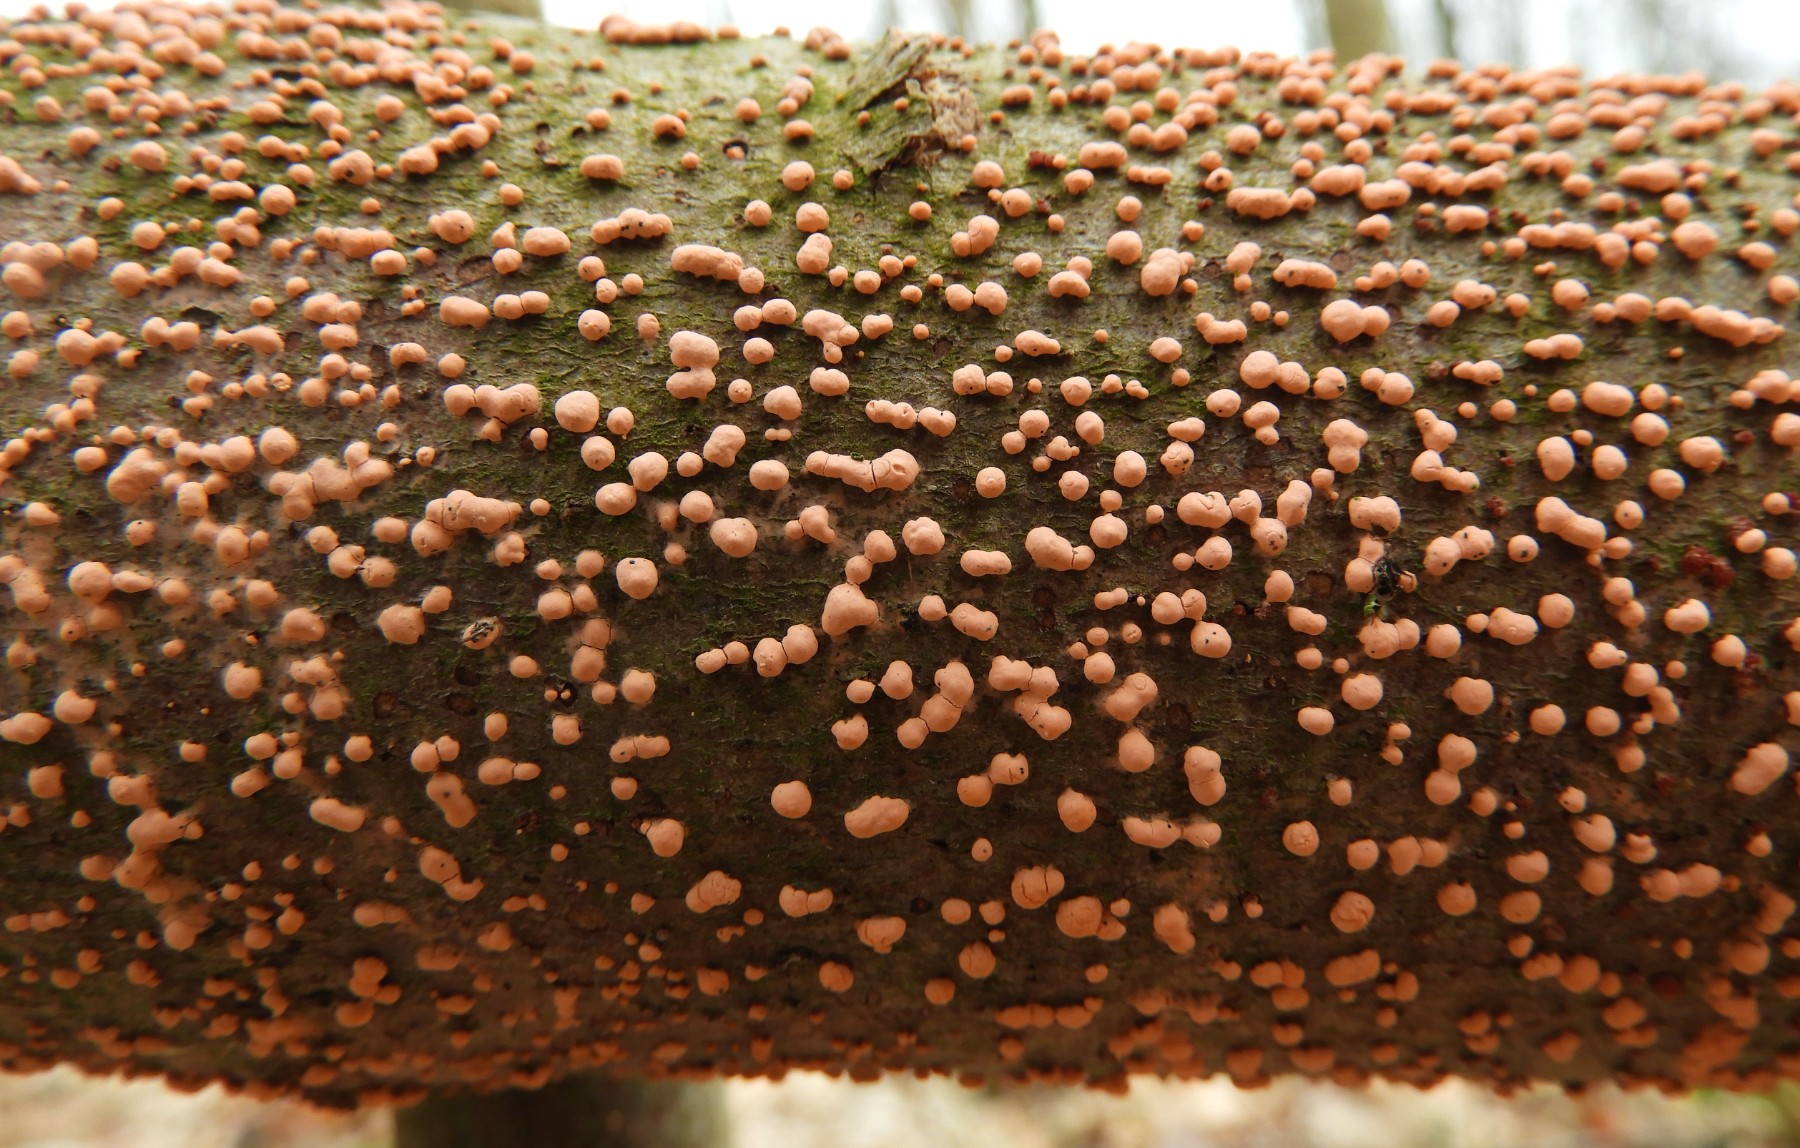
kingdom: Fungi
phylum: Ascomycota
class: Sordariomycetes
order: Hypocreales
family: Nectriaceae
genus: Nectria
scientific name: Nectria cinnabarina
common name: almindelig cinnobersvamp
